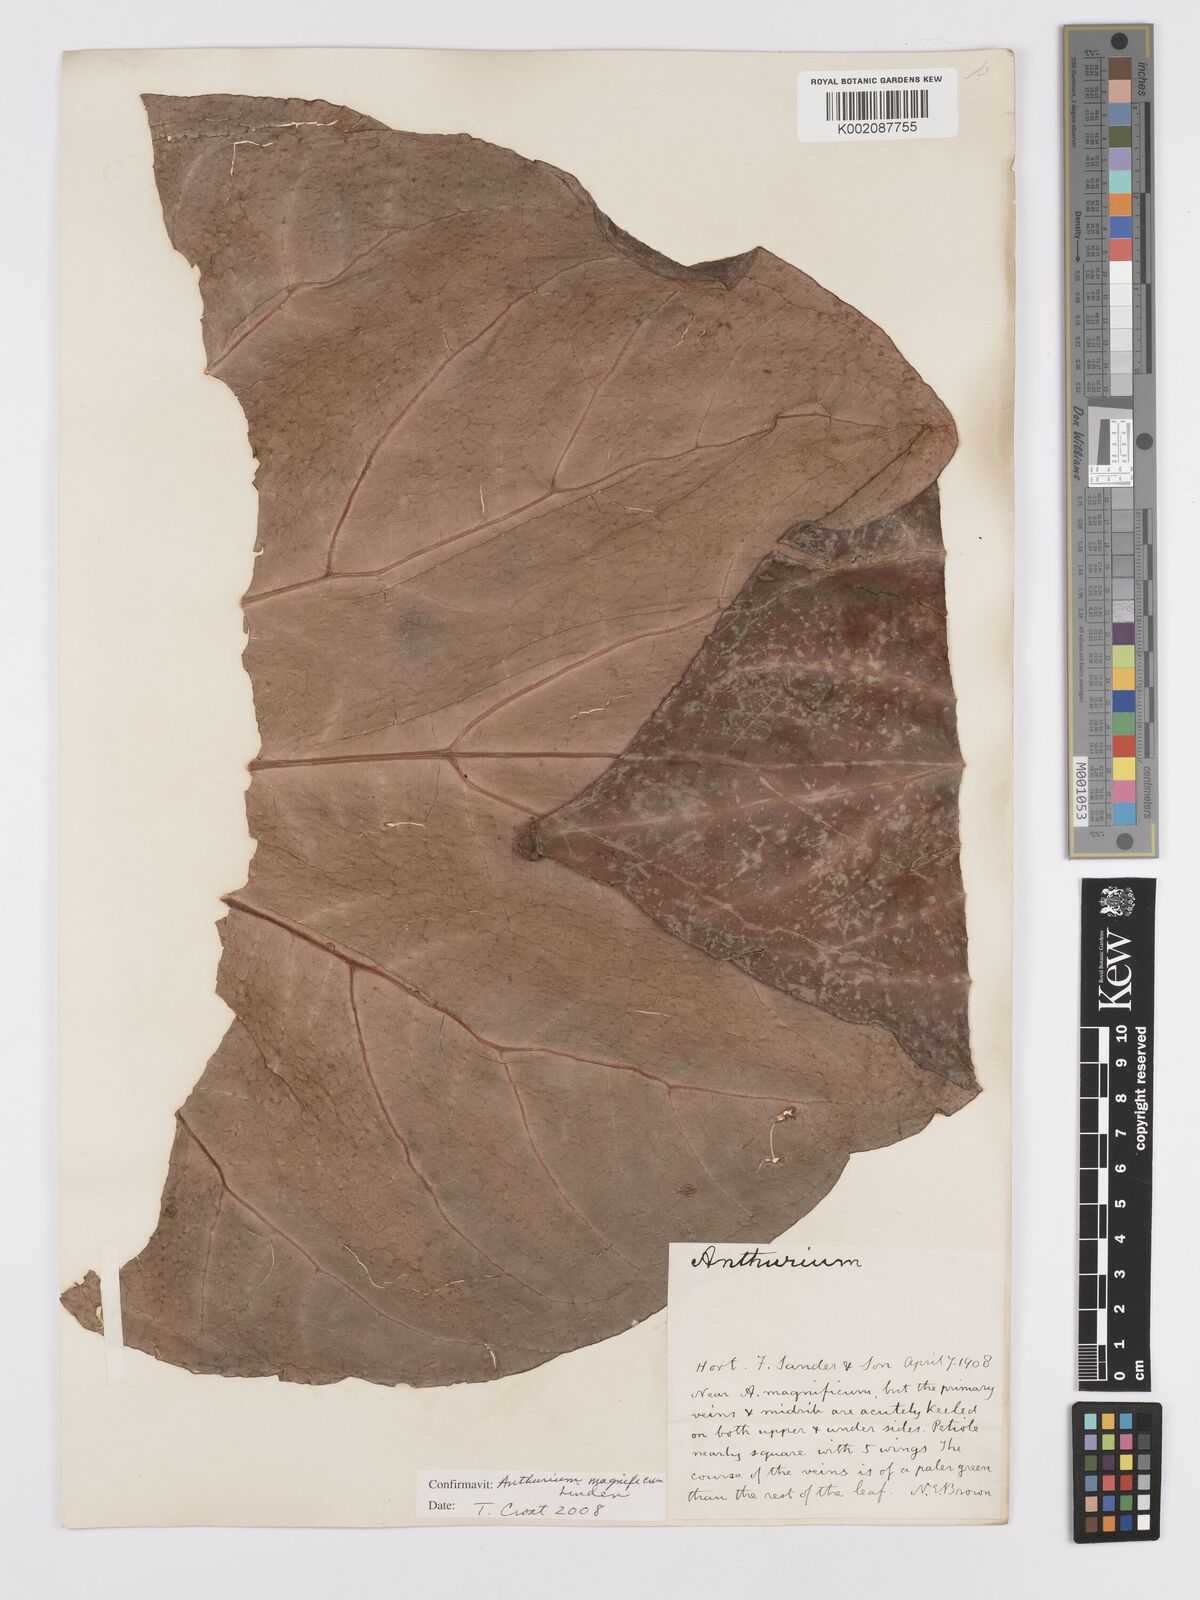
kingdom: Plantae
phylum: Tracheophyta
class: Liliopsida
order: Alismatales
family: Araceae
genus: Anthurium
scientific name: Anthurium magnificum
